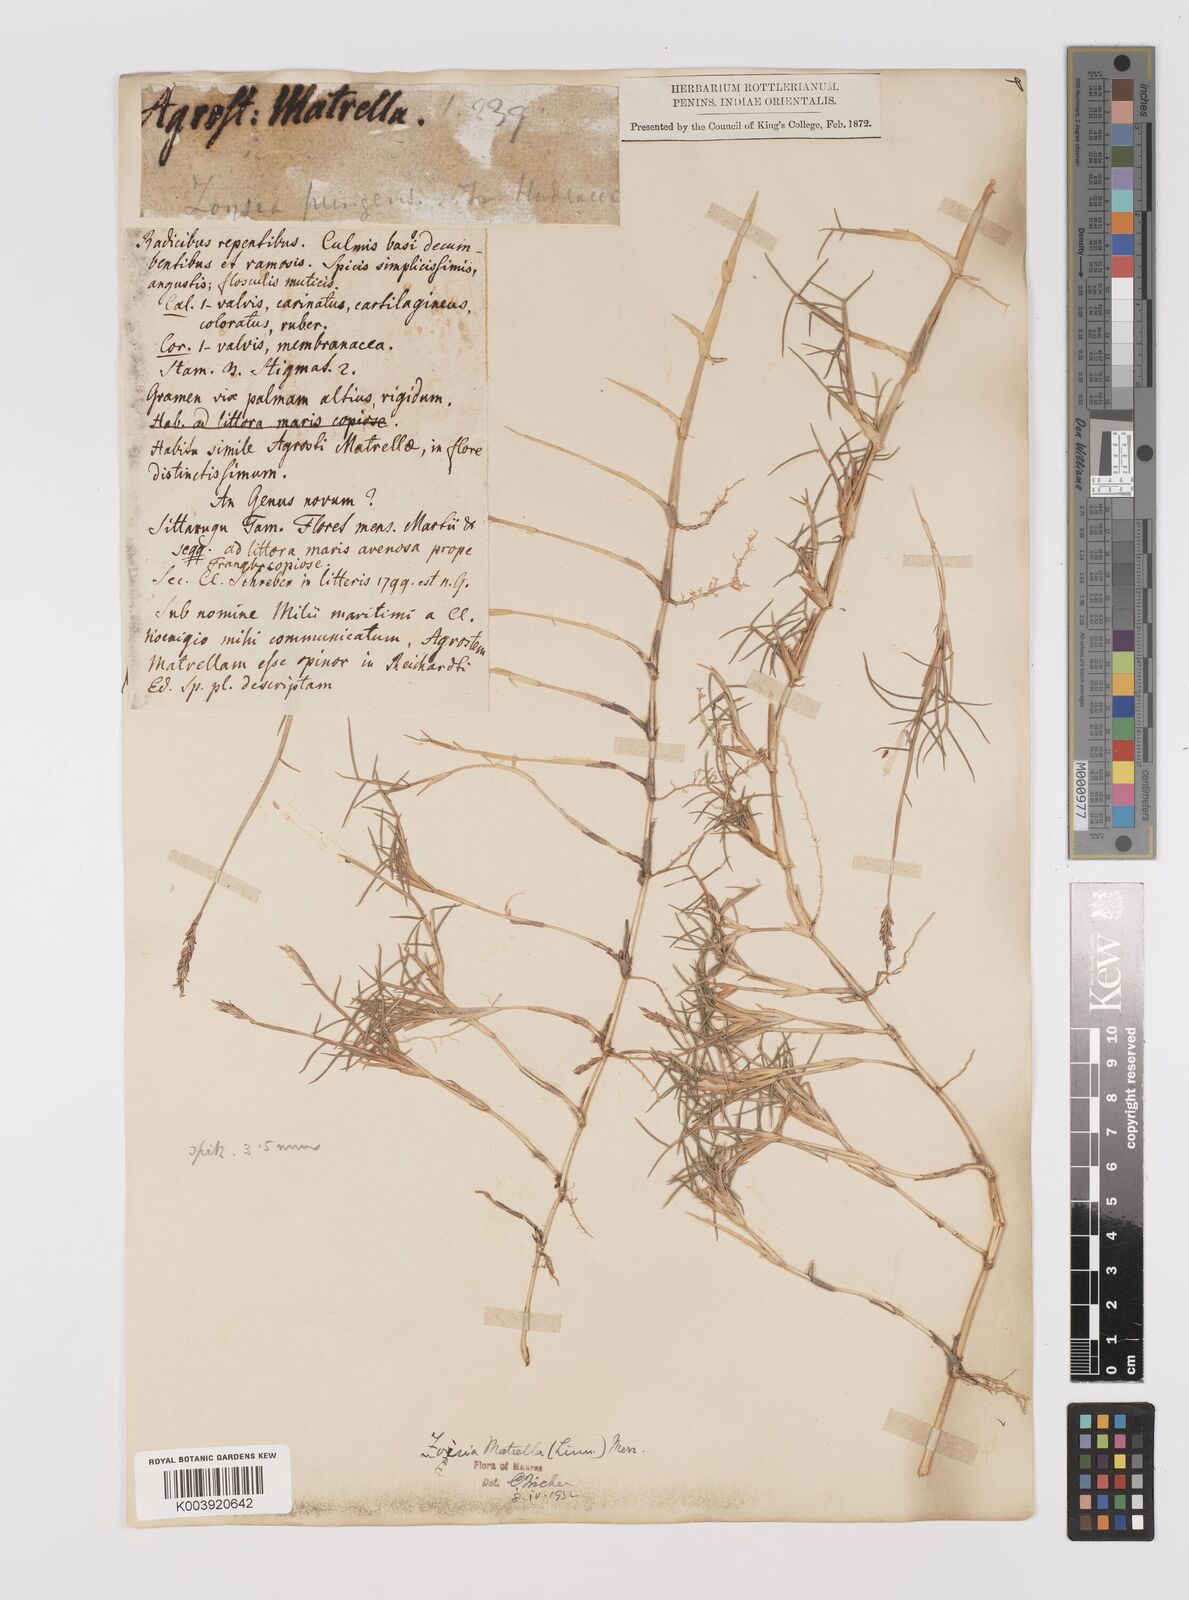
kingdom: Plantae
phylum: Tracheophyta
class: Liliopsida
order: Poales
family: Poaceae
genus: Zoysia
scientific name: Zoysia matrella
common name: Manila grass
